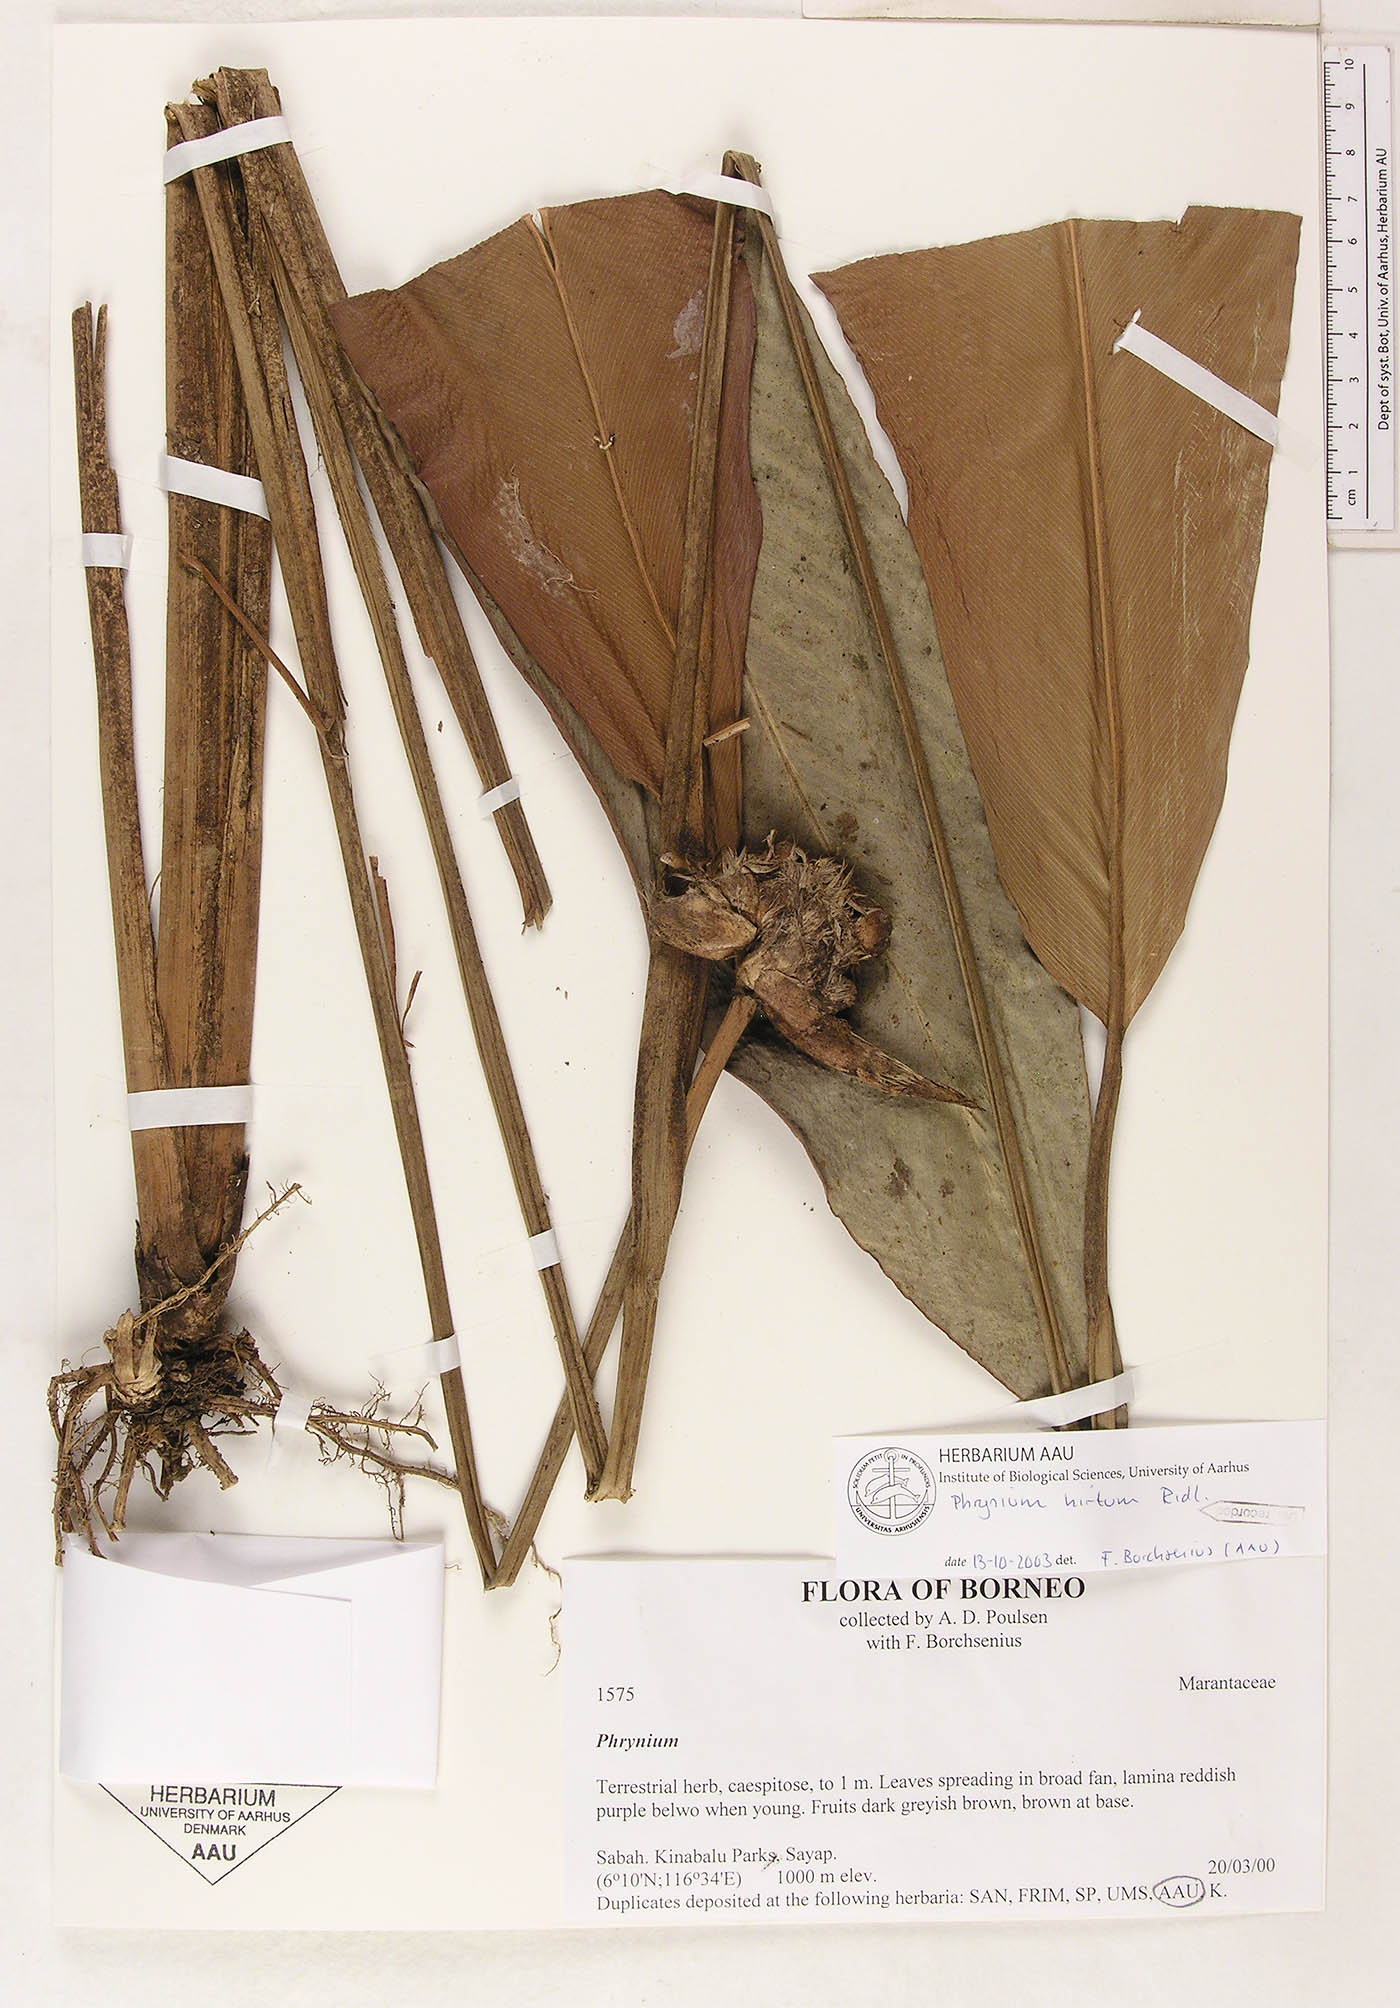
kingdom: Plantae
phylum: Tracheophyta
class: Liliopsida
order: Zingiberales
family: Marantaceae
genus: Phrynium
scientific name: Phrynium hirtum
